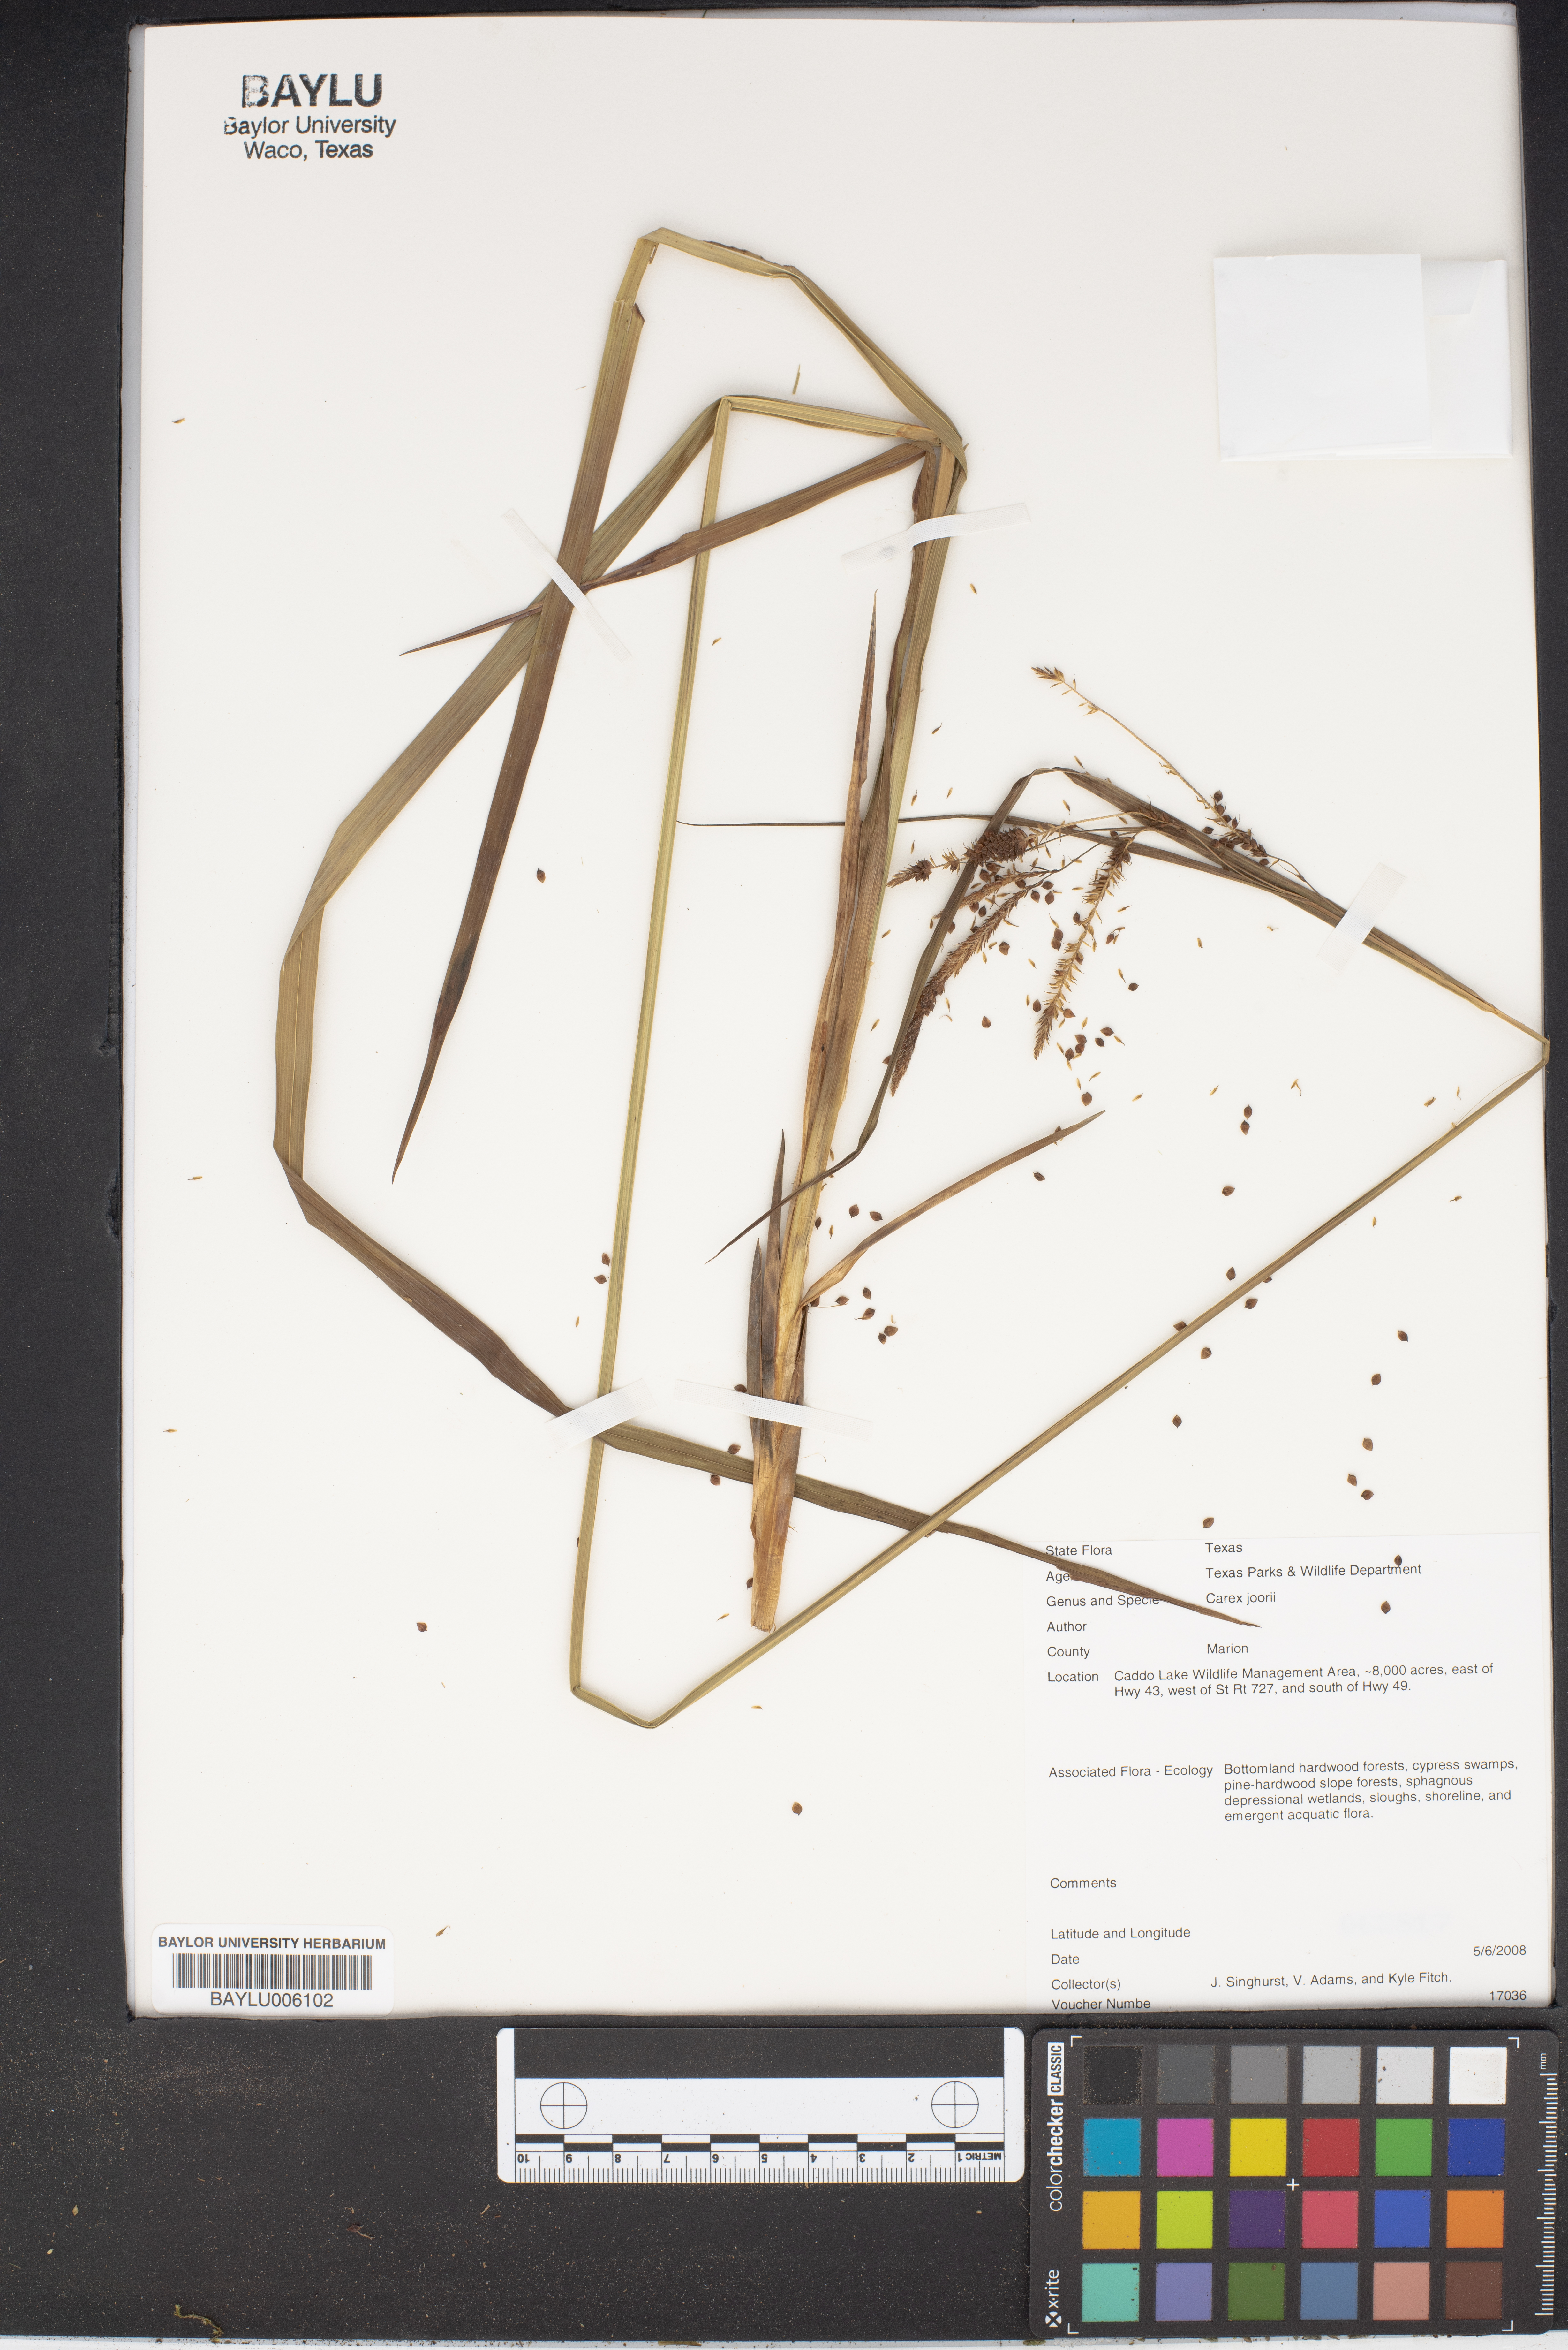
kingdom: Plantae
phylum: Tracheophyta
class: Liliopsida
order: Poales
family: Cyperaceae
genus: Carex
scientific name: Carex joorii
